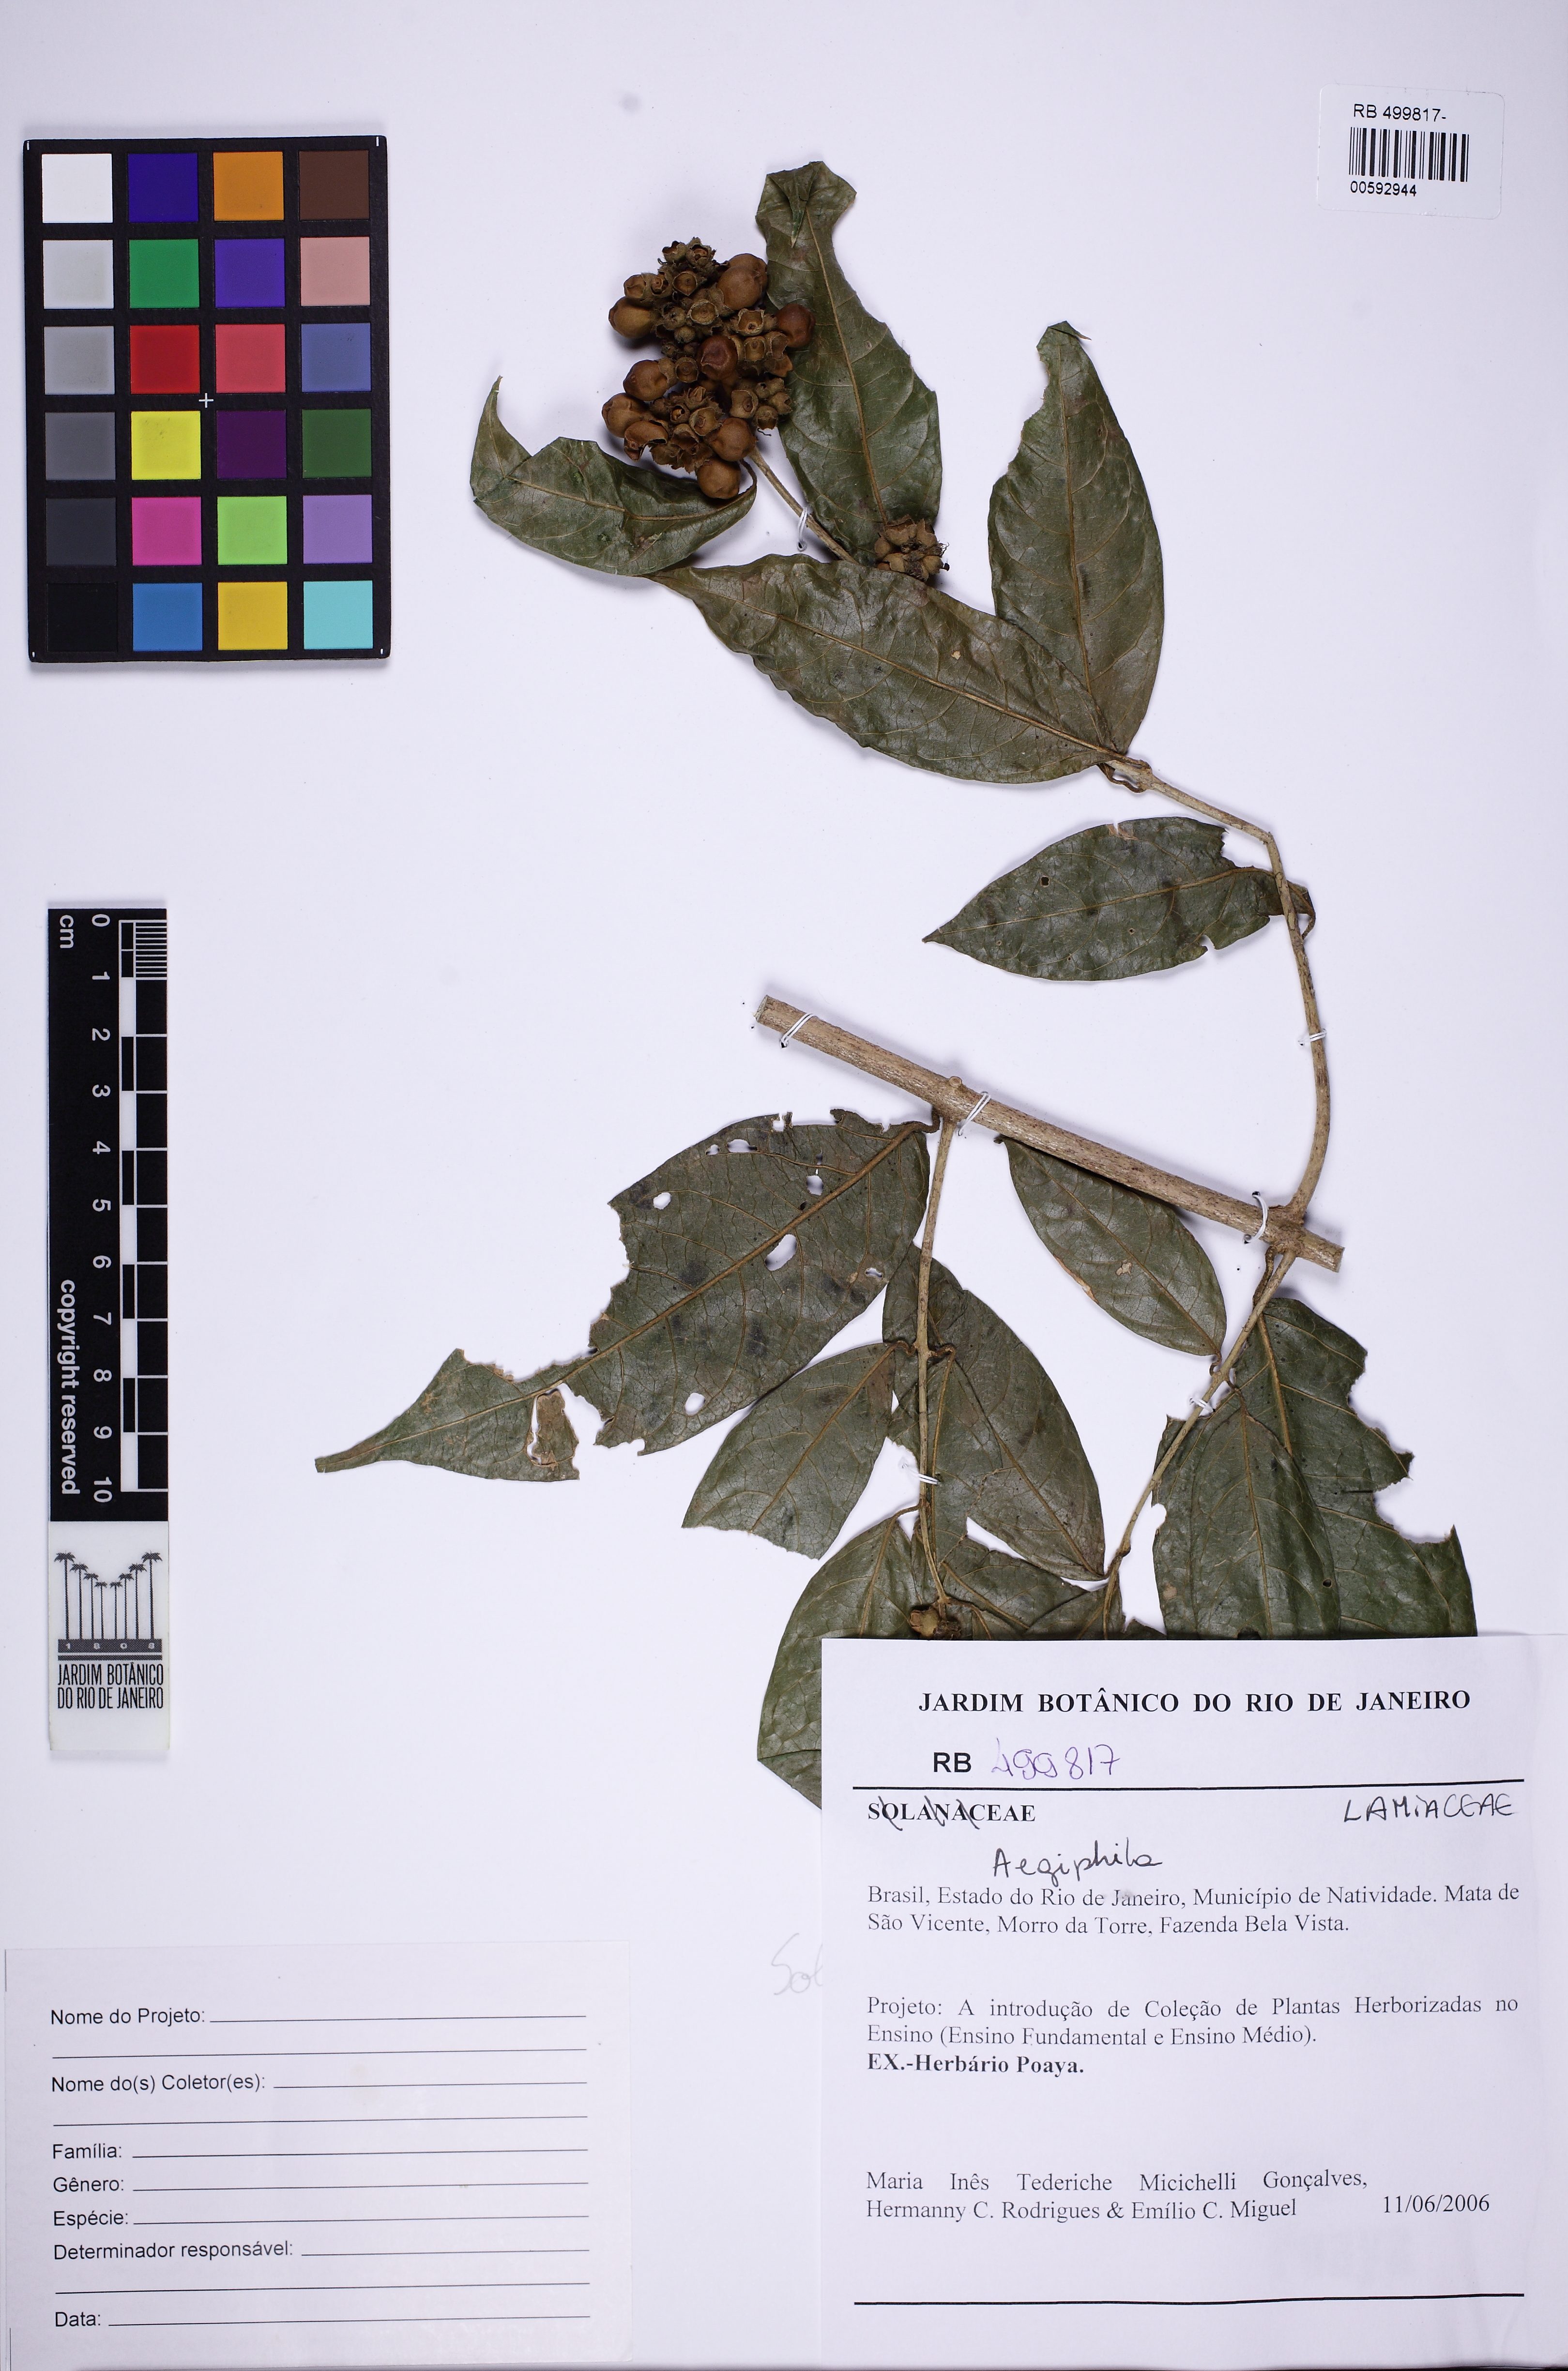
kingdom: Plantae
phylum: Tracheophyta
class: Magnoliopsida
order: Lamiales
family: Lamiaceae
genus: Aegiphila
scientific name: Aegiphila
